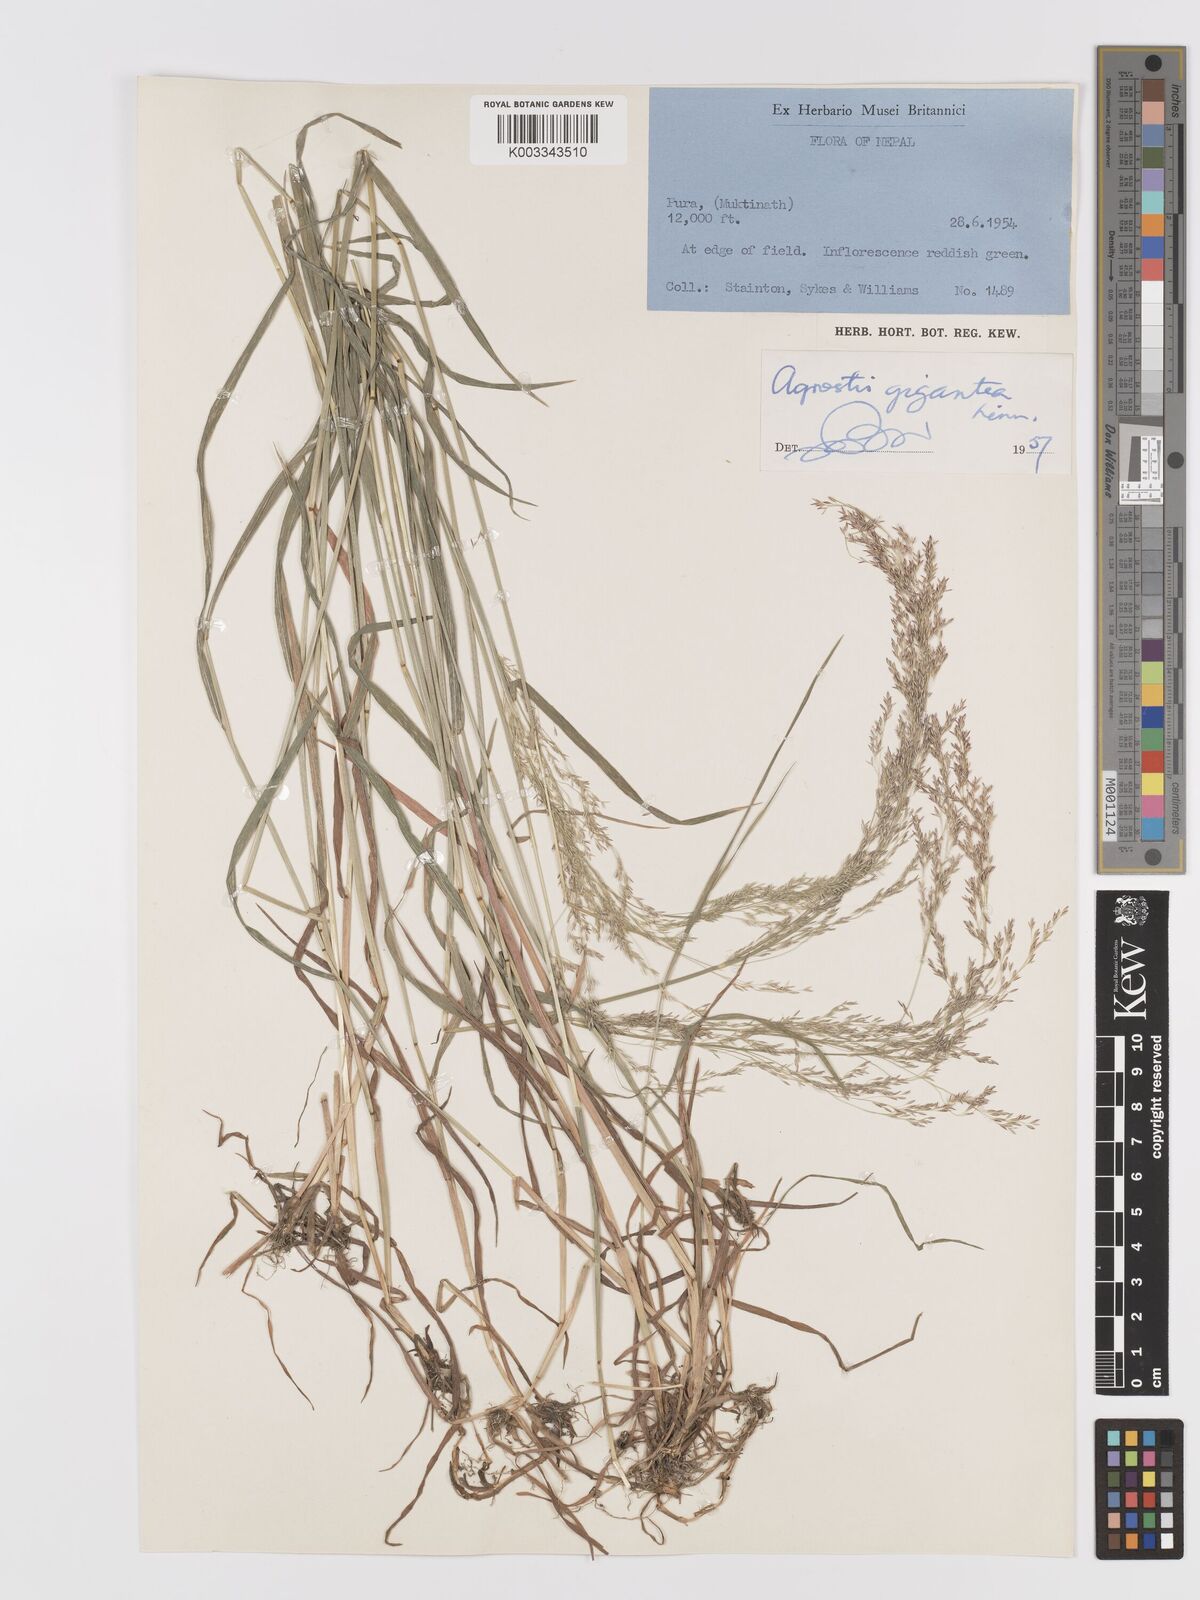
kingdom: Plantae
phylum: Tracheophyta
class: Liliopsida
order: Poales
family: Poaceae
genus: Agrostis
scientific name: Agrostis gigantea
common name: Black bent
